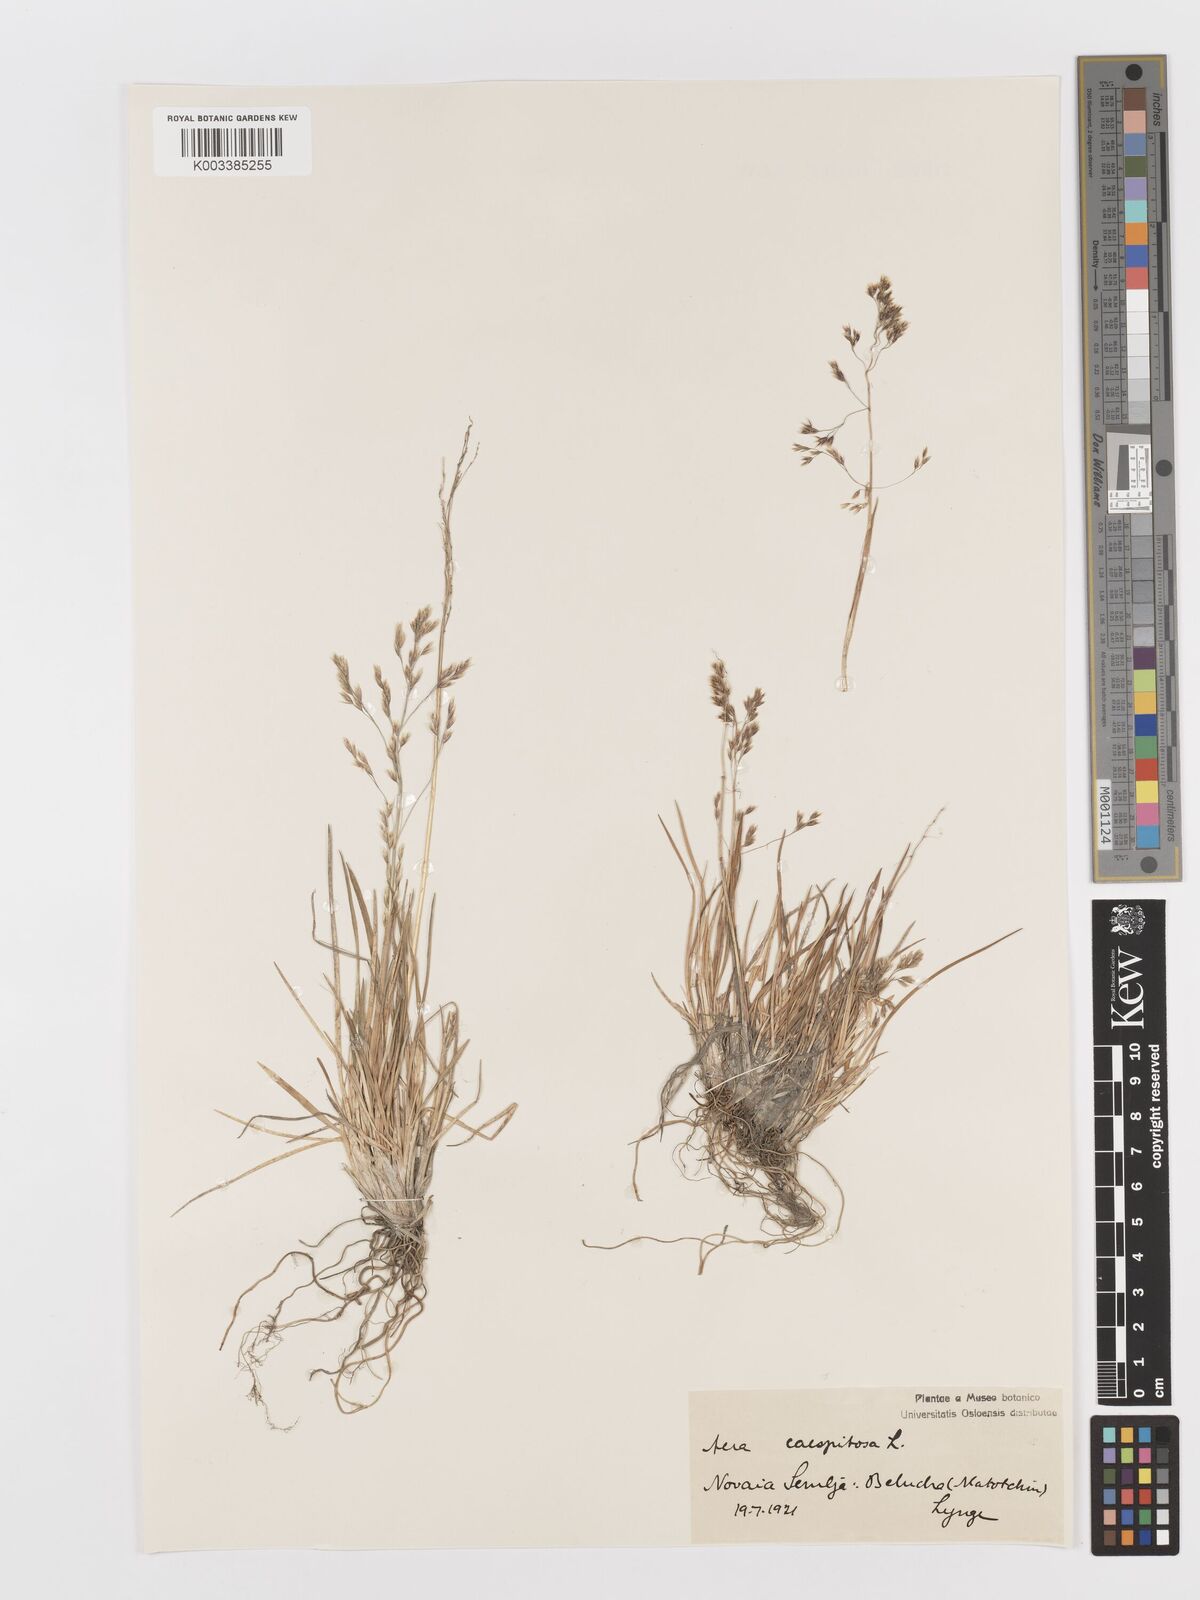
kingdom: Plantae
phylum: Tracheophyta
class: Liliopsida
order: Poales
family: Poaceae
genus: Deschampsia
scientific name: Deschampsia cespitosa
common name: Tufted hair-grass
